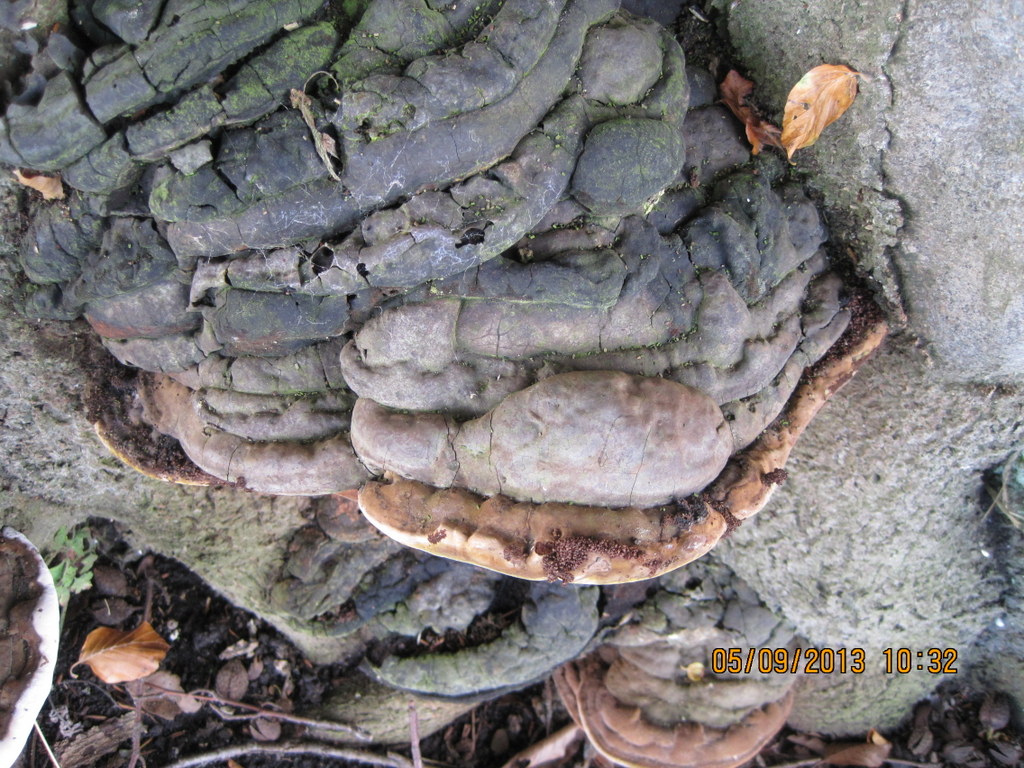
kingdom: Fungi
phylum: Basidiomycota
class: Agaricomycetes
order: Polyporales
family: Polyporaceae
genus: Ganoderma
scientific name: Ganoderma pfeifferi
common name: kobberrød lakporesvamp
